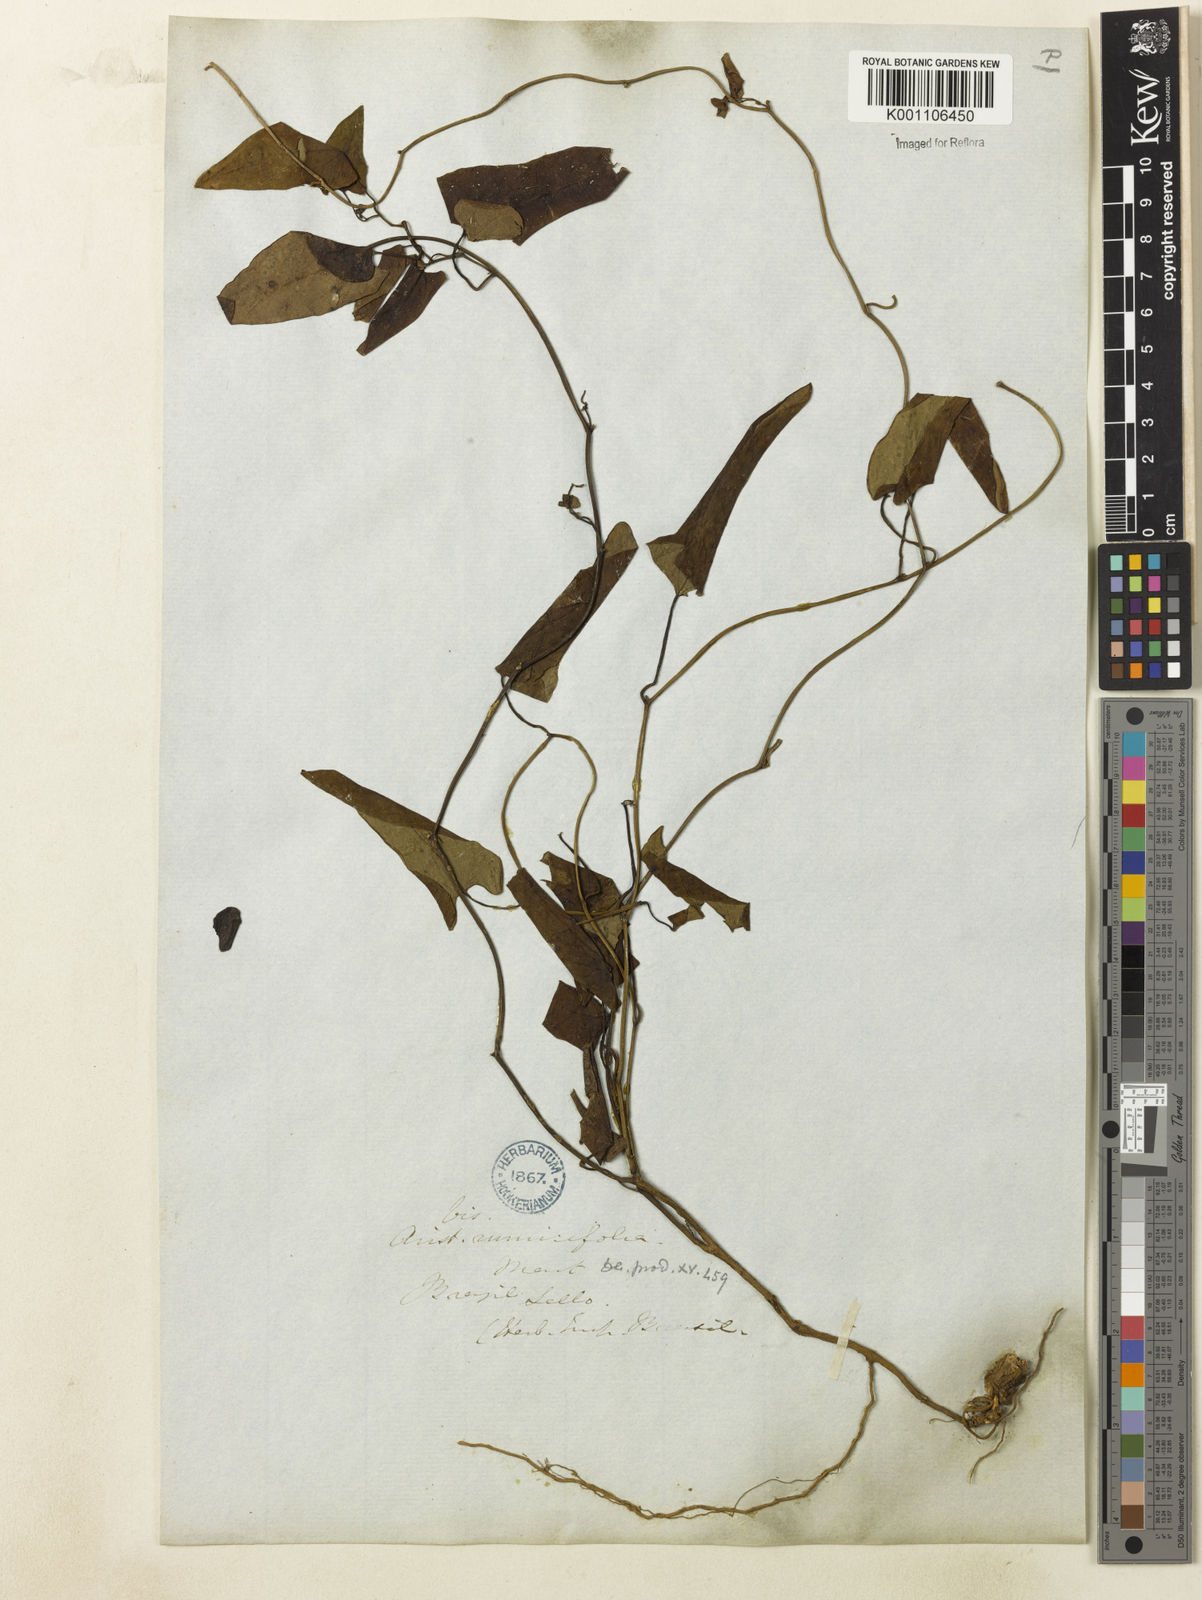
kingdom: Plantae
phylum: Tracheophyta
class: Magnoliopsida
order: Piperales
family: Aristolochiaceae
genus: Aristolochia
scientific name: Aristolochia rumicifolia
